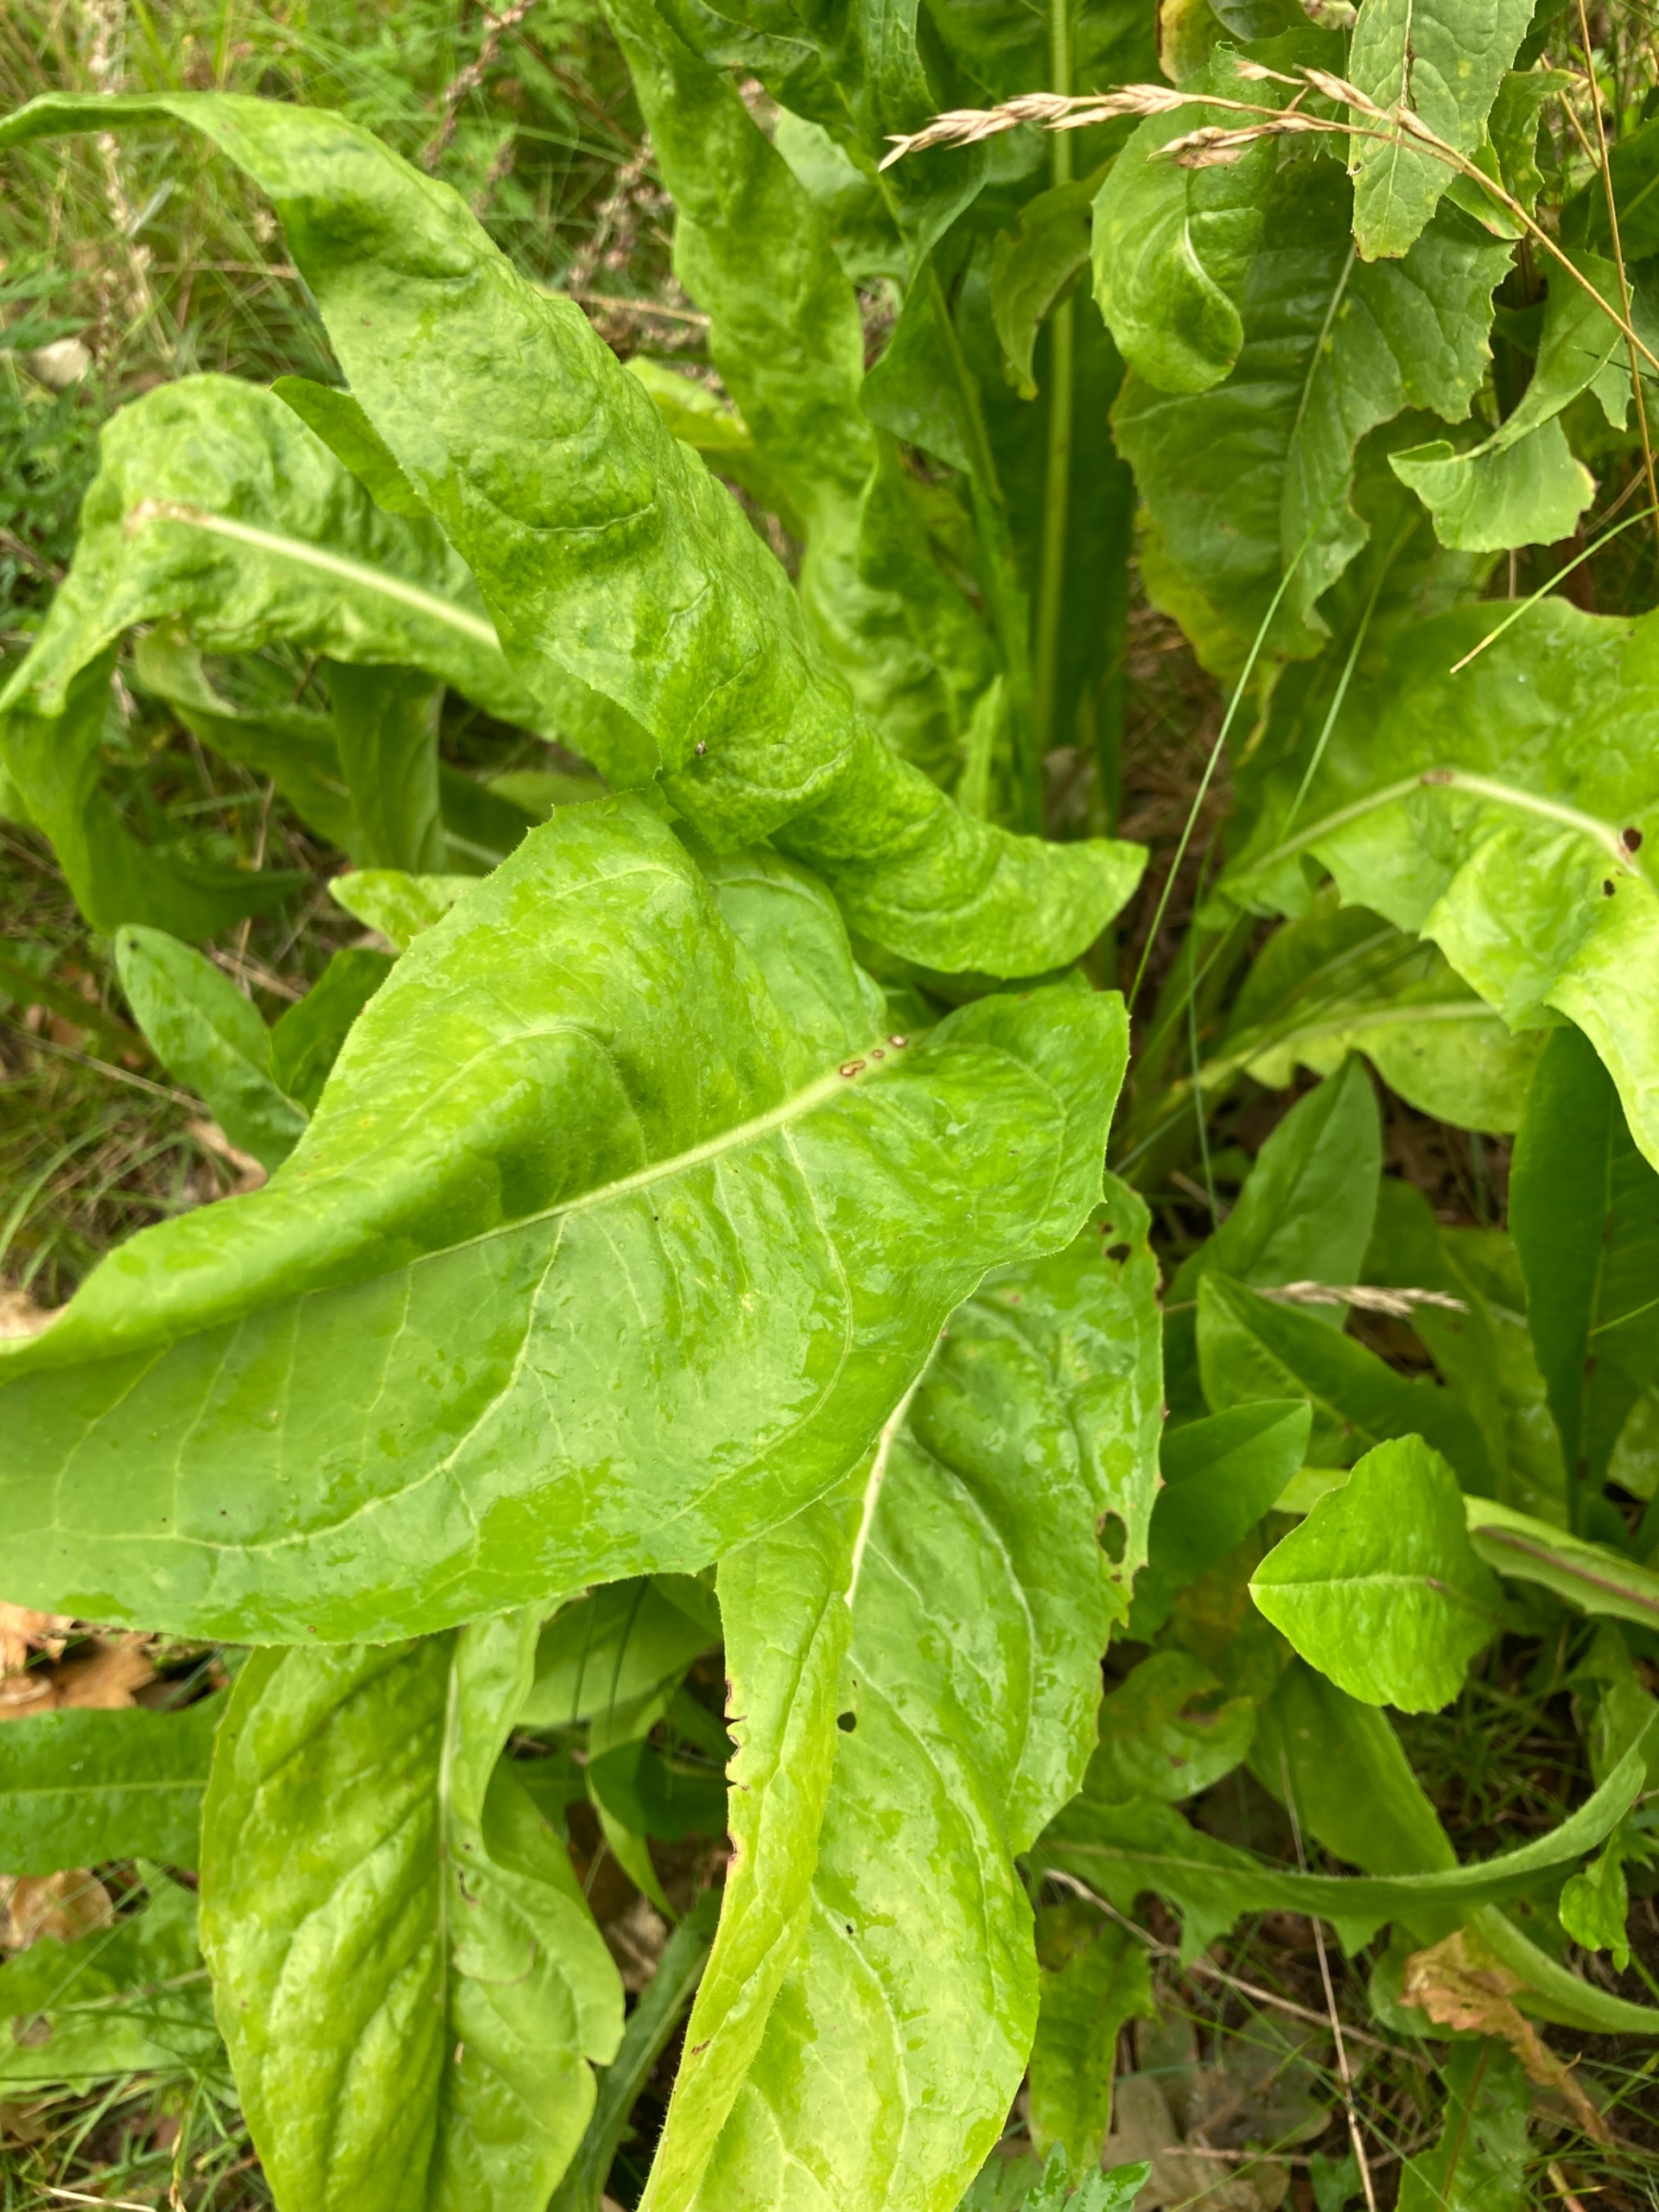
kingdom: Plantae
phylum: Tracheophyta
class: Magnoliopsida
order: Asterales
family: Asteraceae
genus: Cichorium
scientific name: Cichorium intybus
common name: Cikorie
